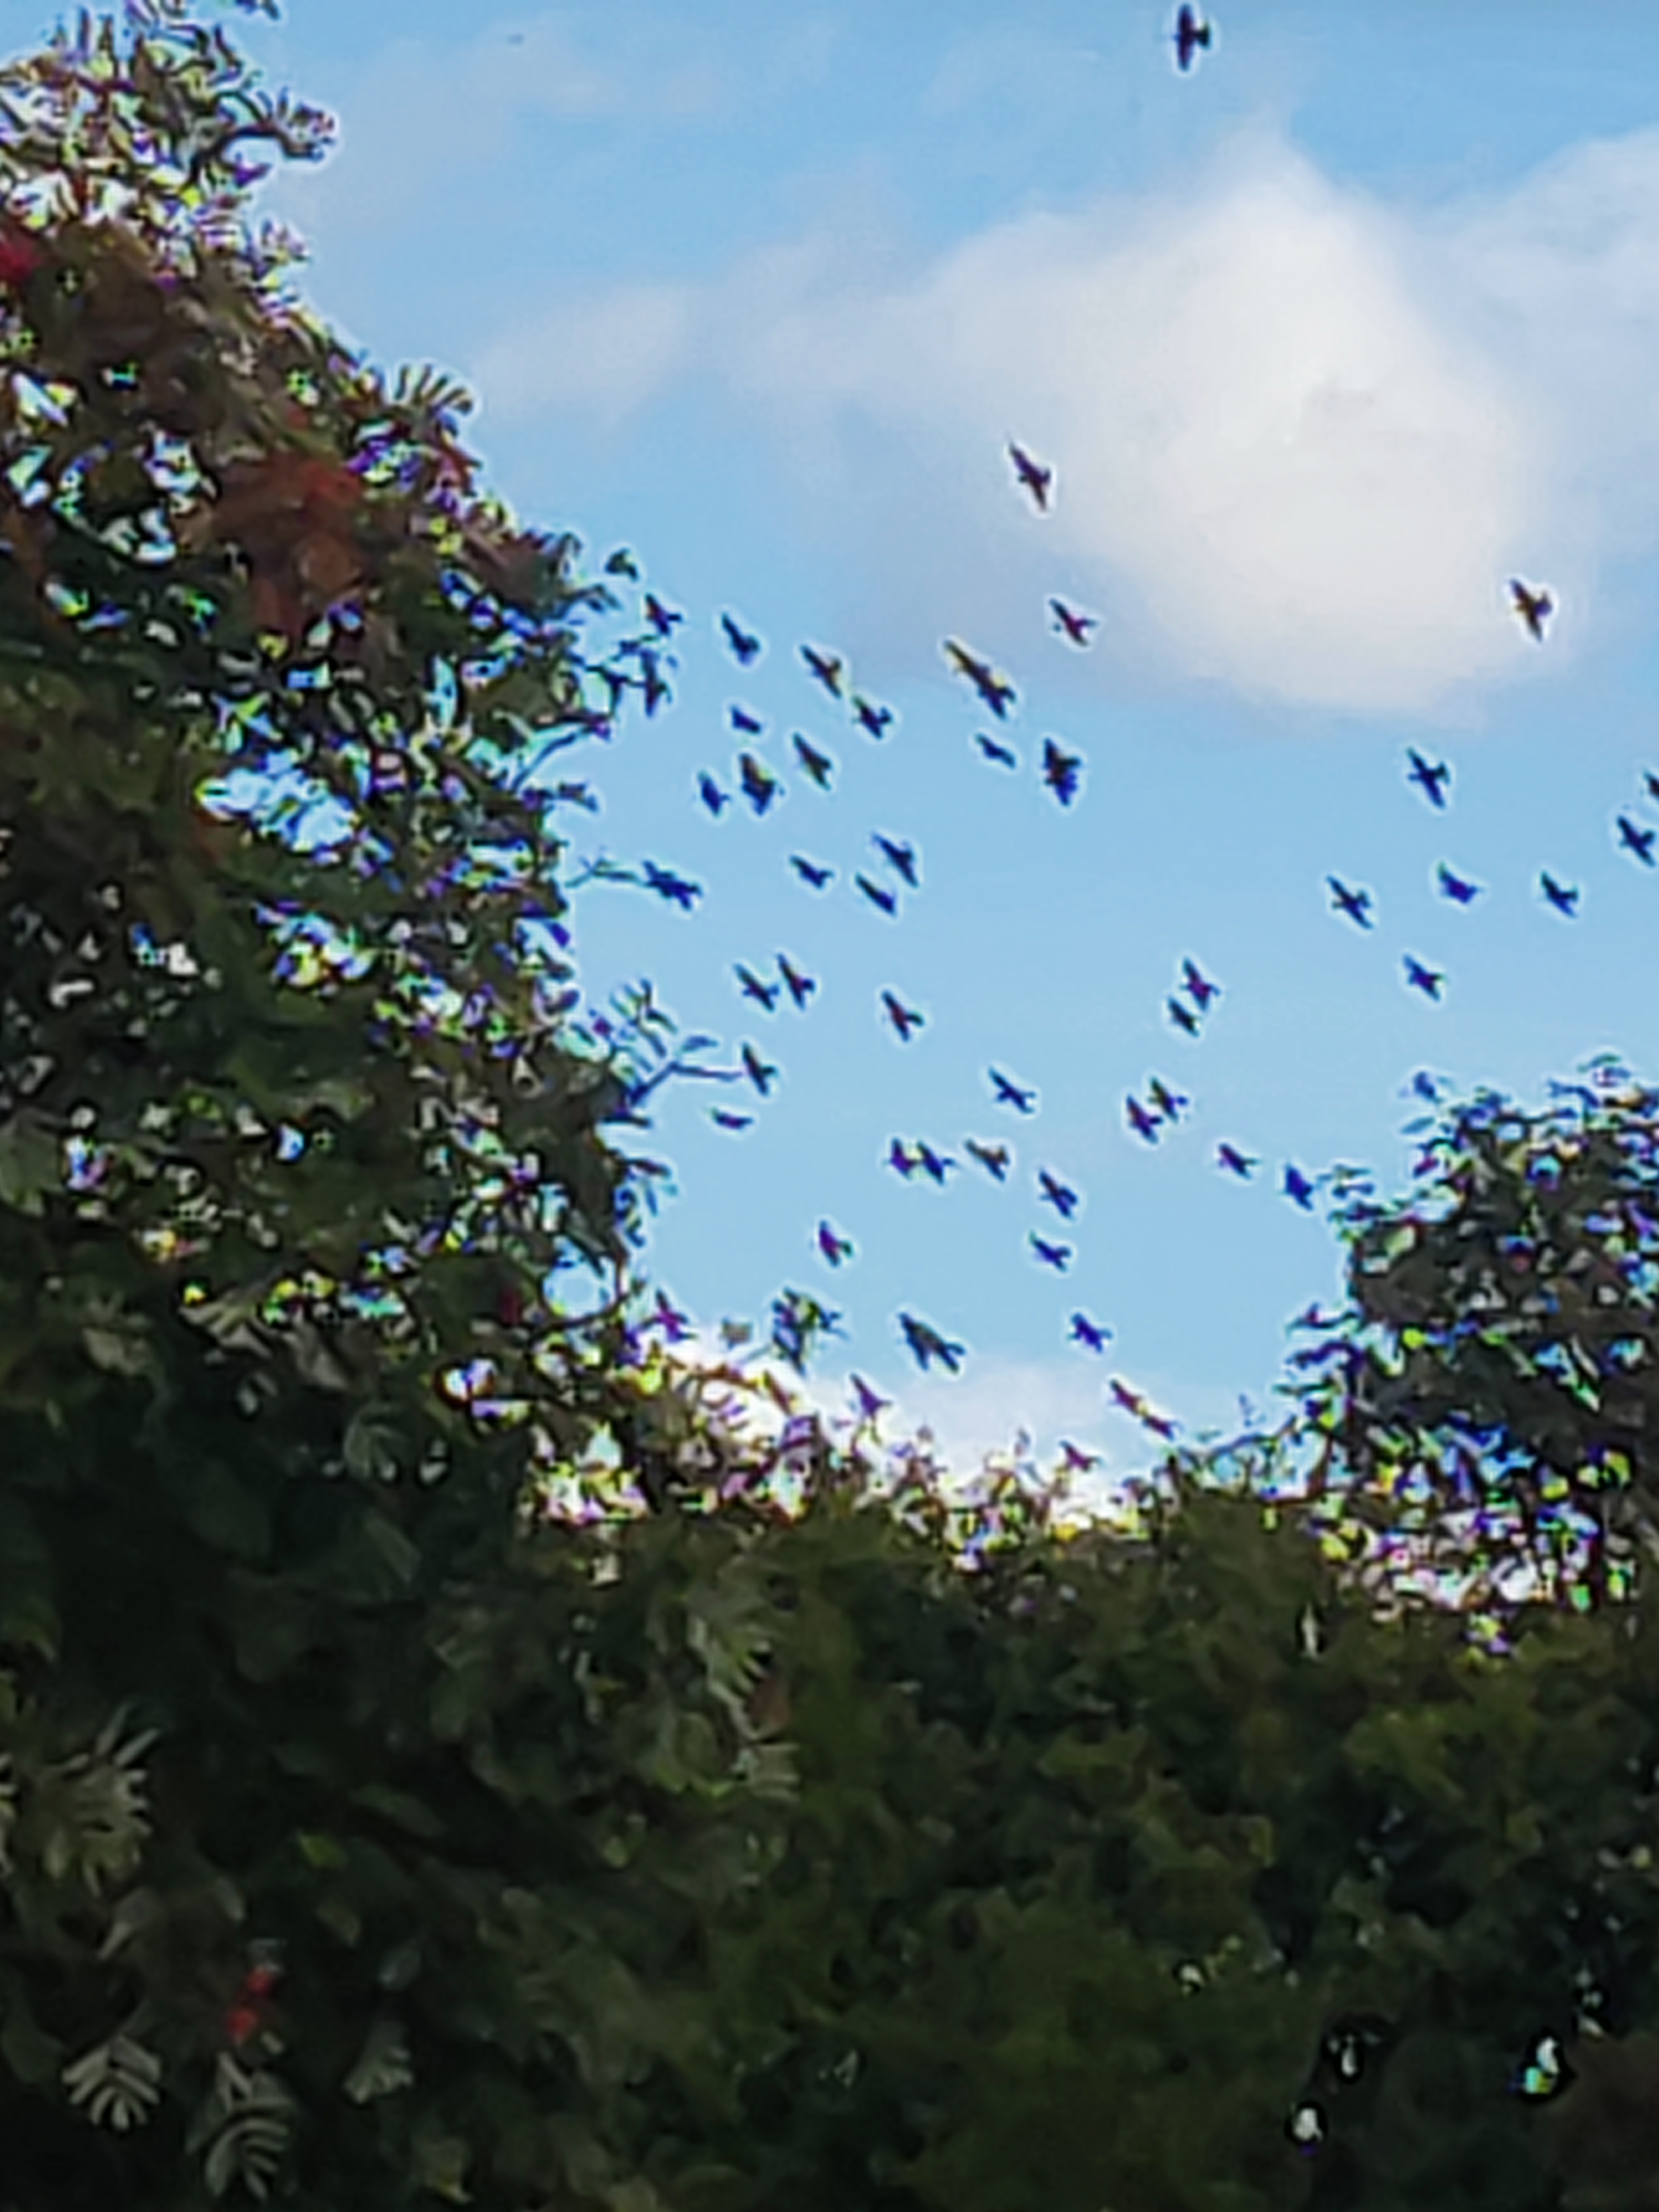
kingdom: Animalia
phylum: Chordata
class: Aves
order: Passeriformes
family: Sturnidae
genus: Sturnus
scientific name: Sturnus vulgaris
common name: Stær
